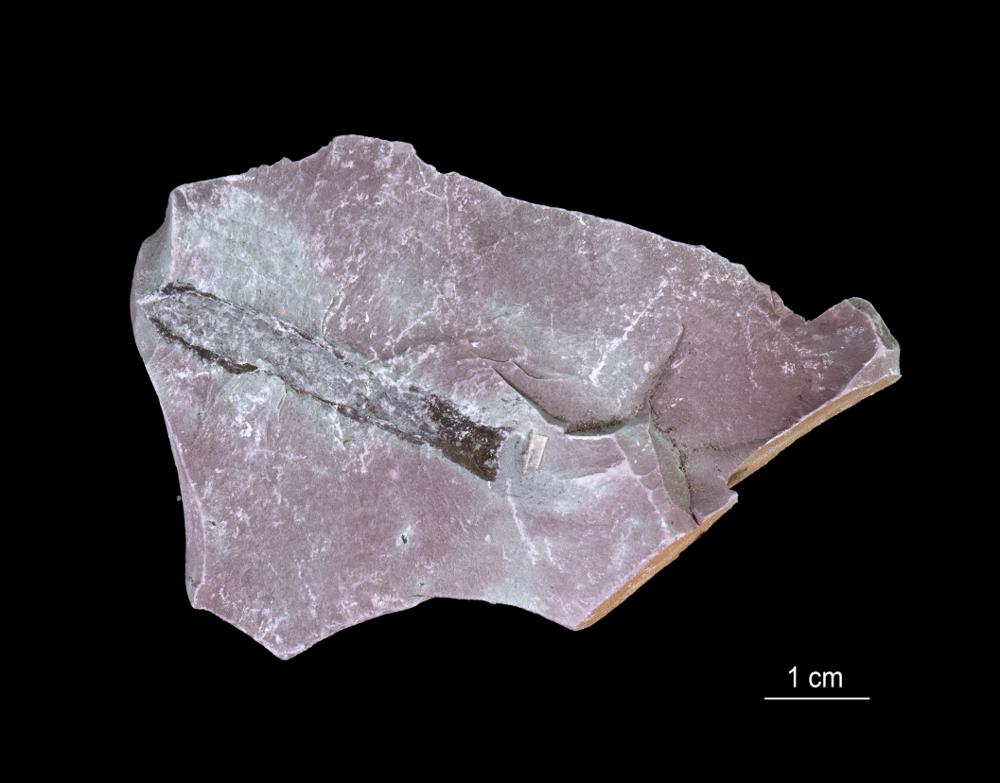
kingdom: Chromista
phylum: Foraminifera
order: Astrorhizida
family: Hyperamminidae
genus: Platysolenites
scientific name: Platysolenites
